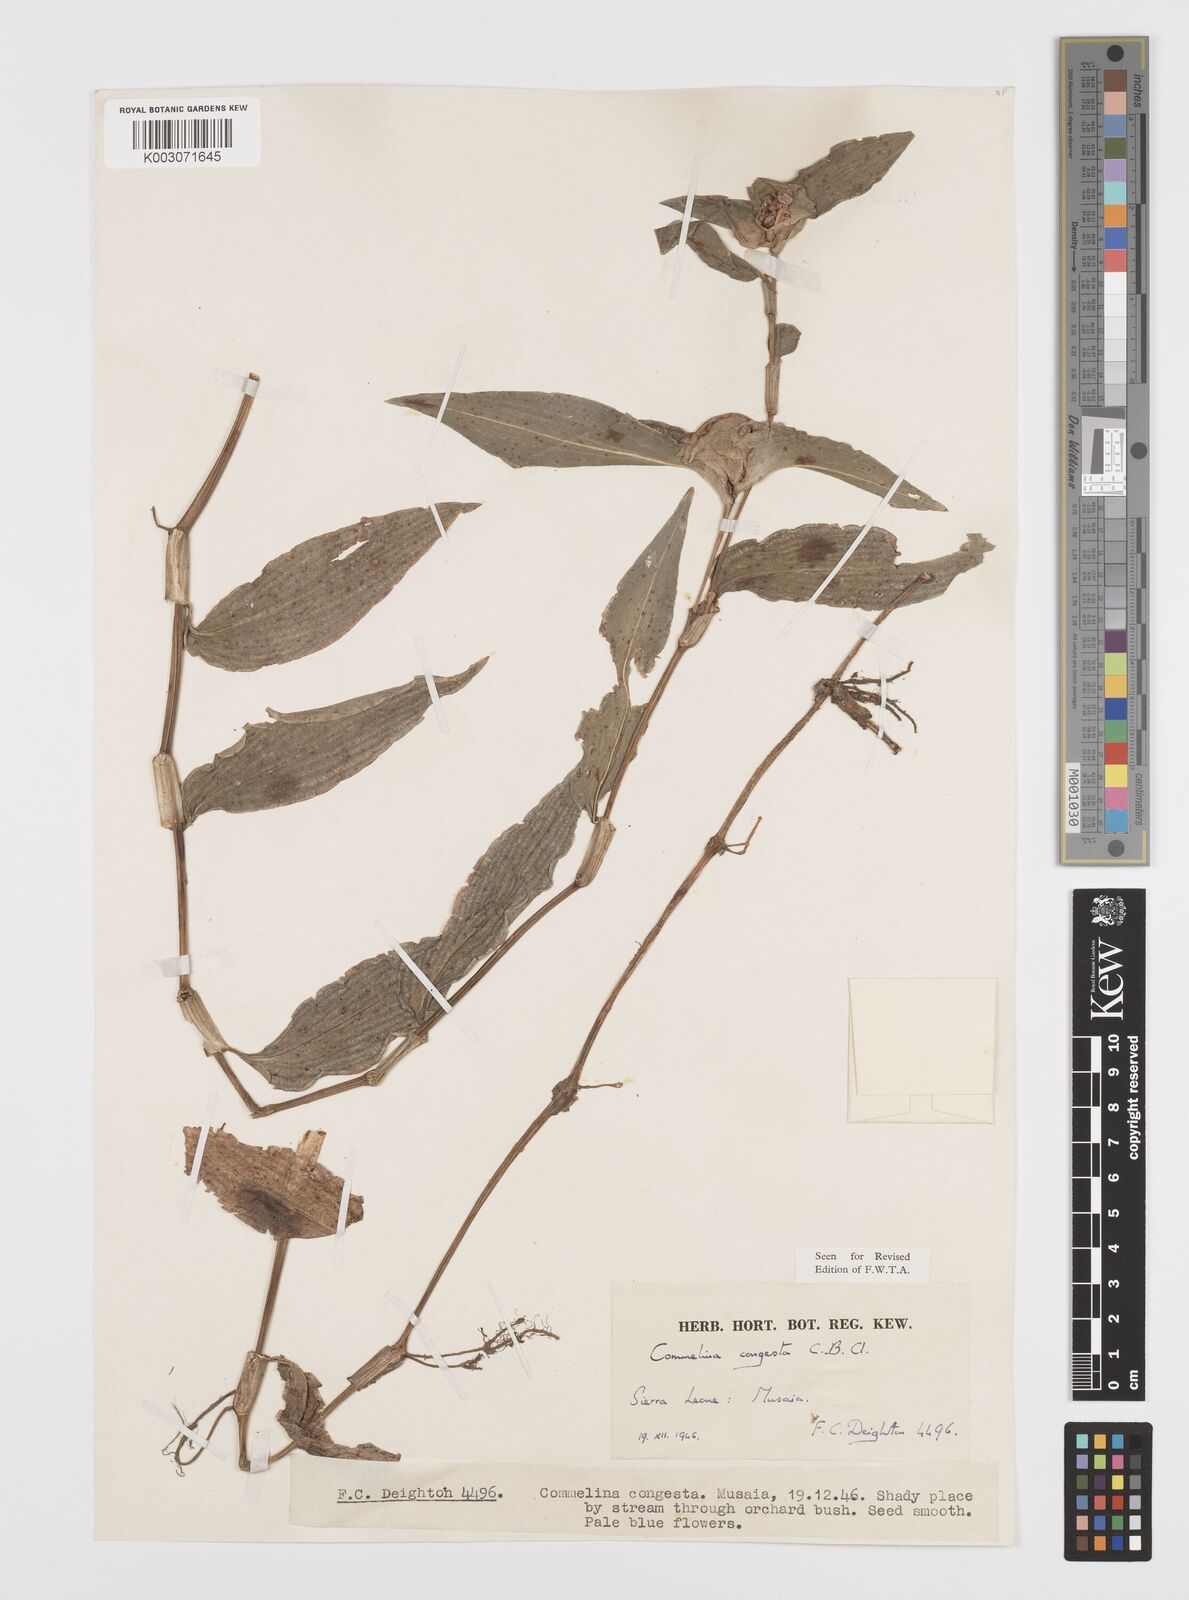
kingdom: Plantae
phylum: Tracheophyta
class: Liliopsida
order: Commelinales
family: Commelinaceae
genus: Commelina
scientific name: Commelina congesta
